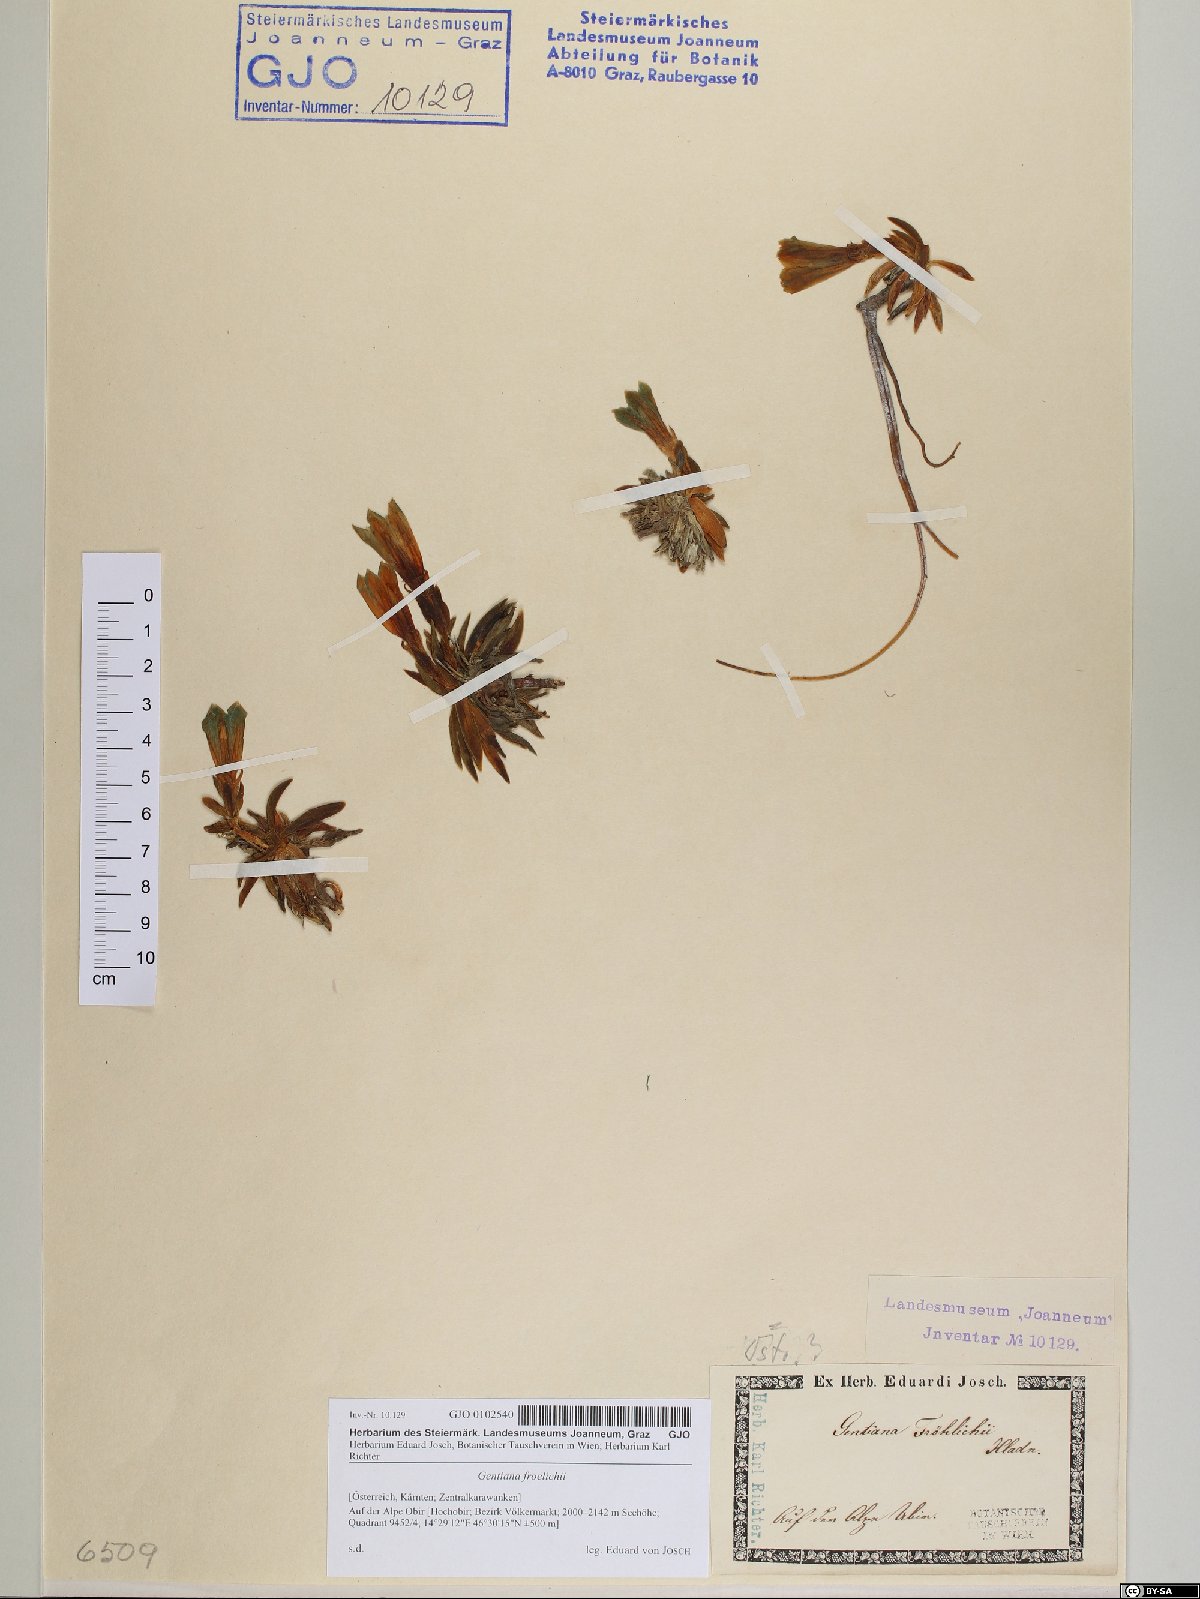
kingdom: Plantae
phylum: Tracheophyta
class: Magnoliopsida
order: Gentianales
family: Gentianaceae
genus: Gentiana
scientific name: Gentiana froelichii
